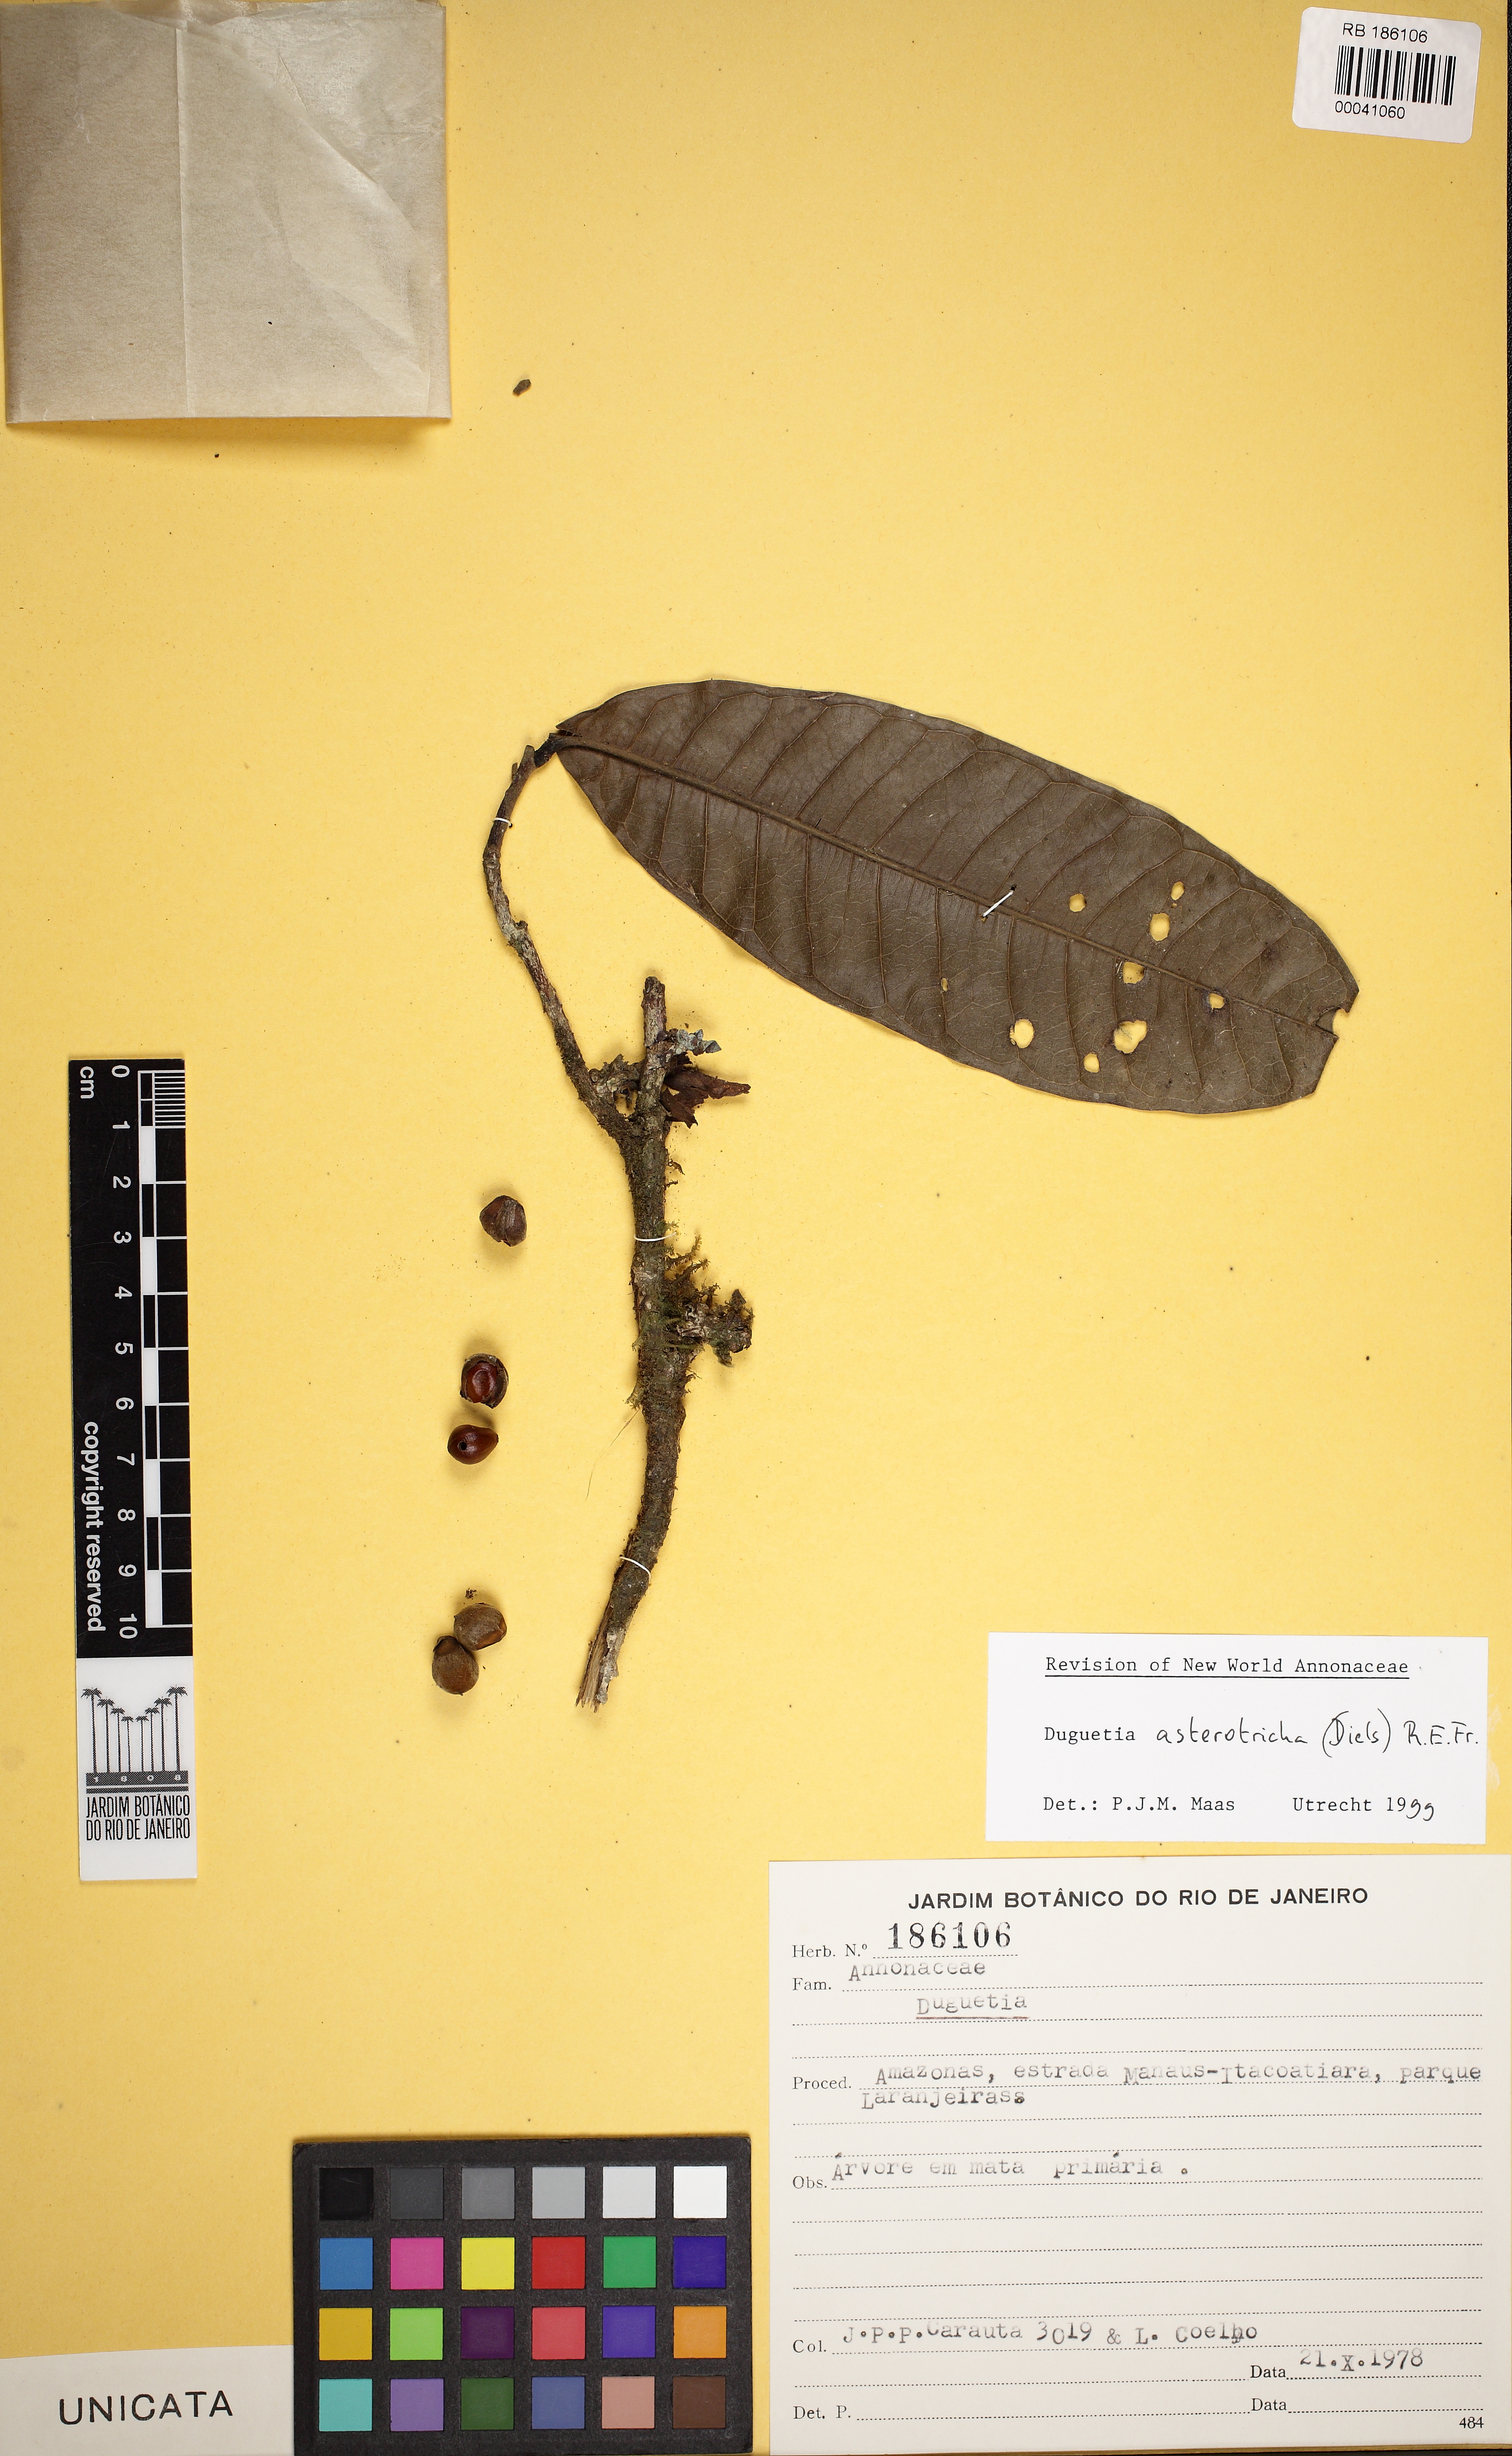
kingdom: Plantae
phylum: Tracheophyta
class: Magnoliopsida
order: Magnoliales
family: Annonaceae
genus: Duguetia
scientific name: Duguetia asterotricha
